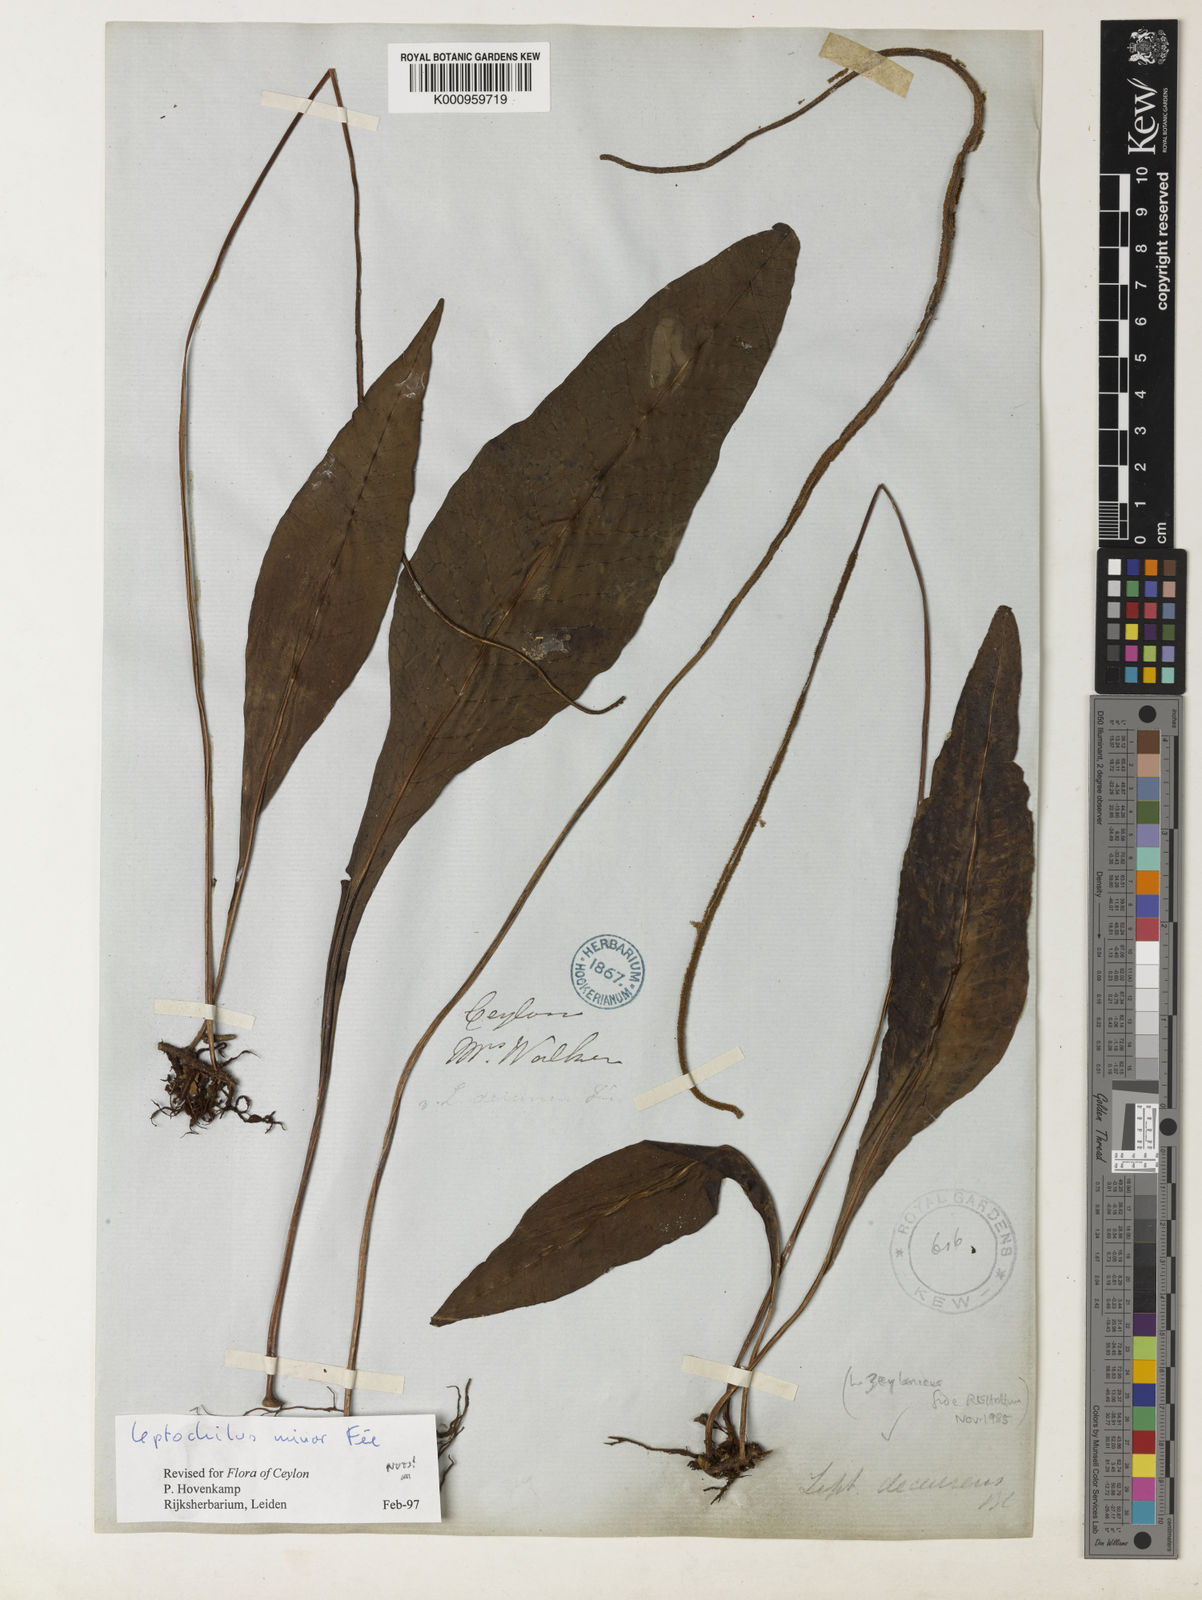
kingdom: Plantae
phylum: Tracheophyta
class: Polypodiopsida
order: Polypodiales
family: Polypodiaceae
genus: Leptochilus
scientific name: Leptochilus decurrens
